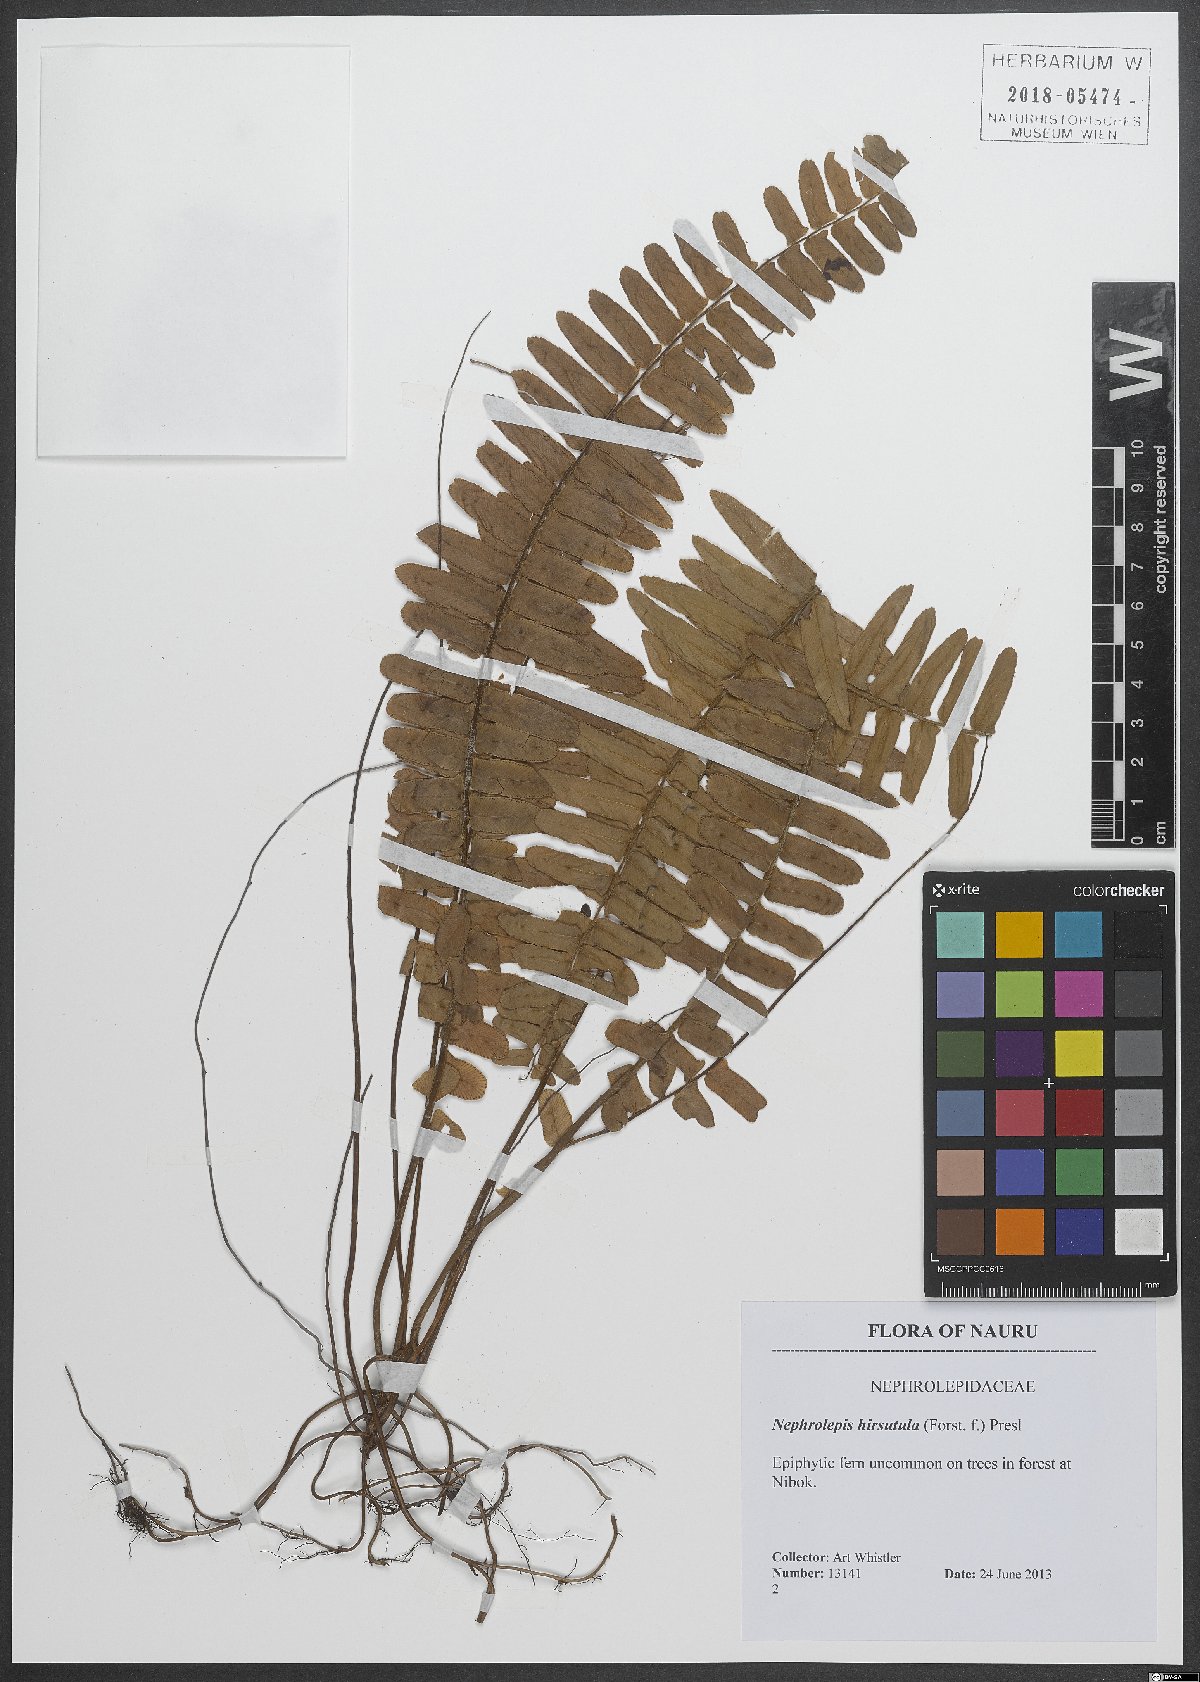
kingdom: Plantae
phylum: Tracheophyta
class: Polypodiopsida
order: Polypodiales
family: Nephrolepidaceae
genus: Nephrolepis
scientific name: Nephrolepis hirsutula
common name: Asian sword fern
